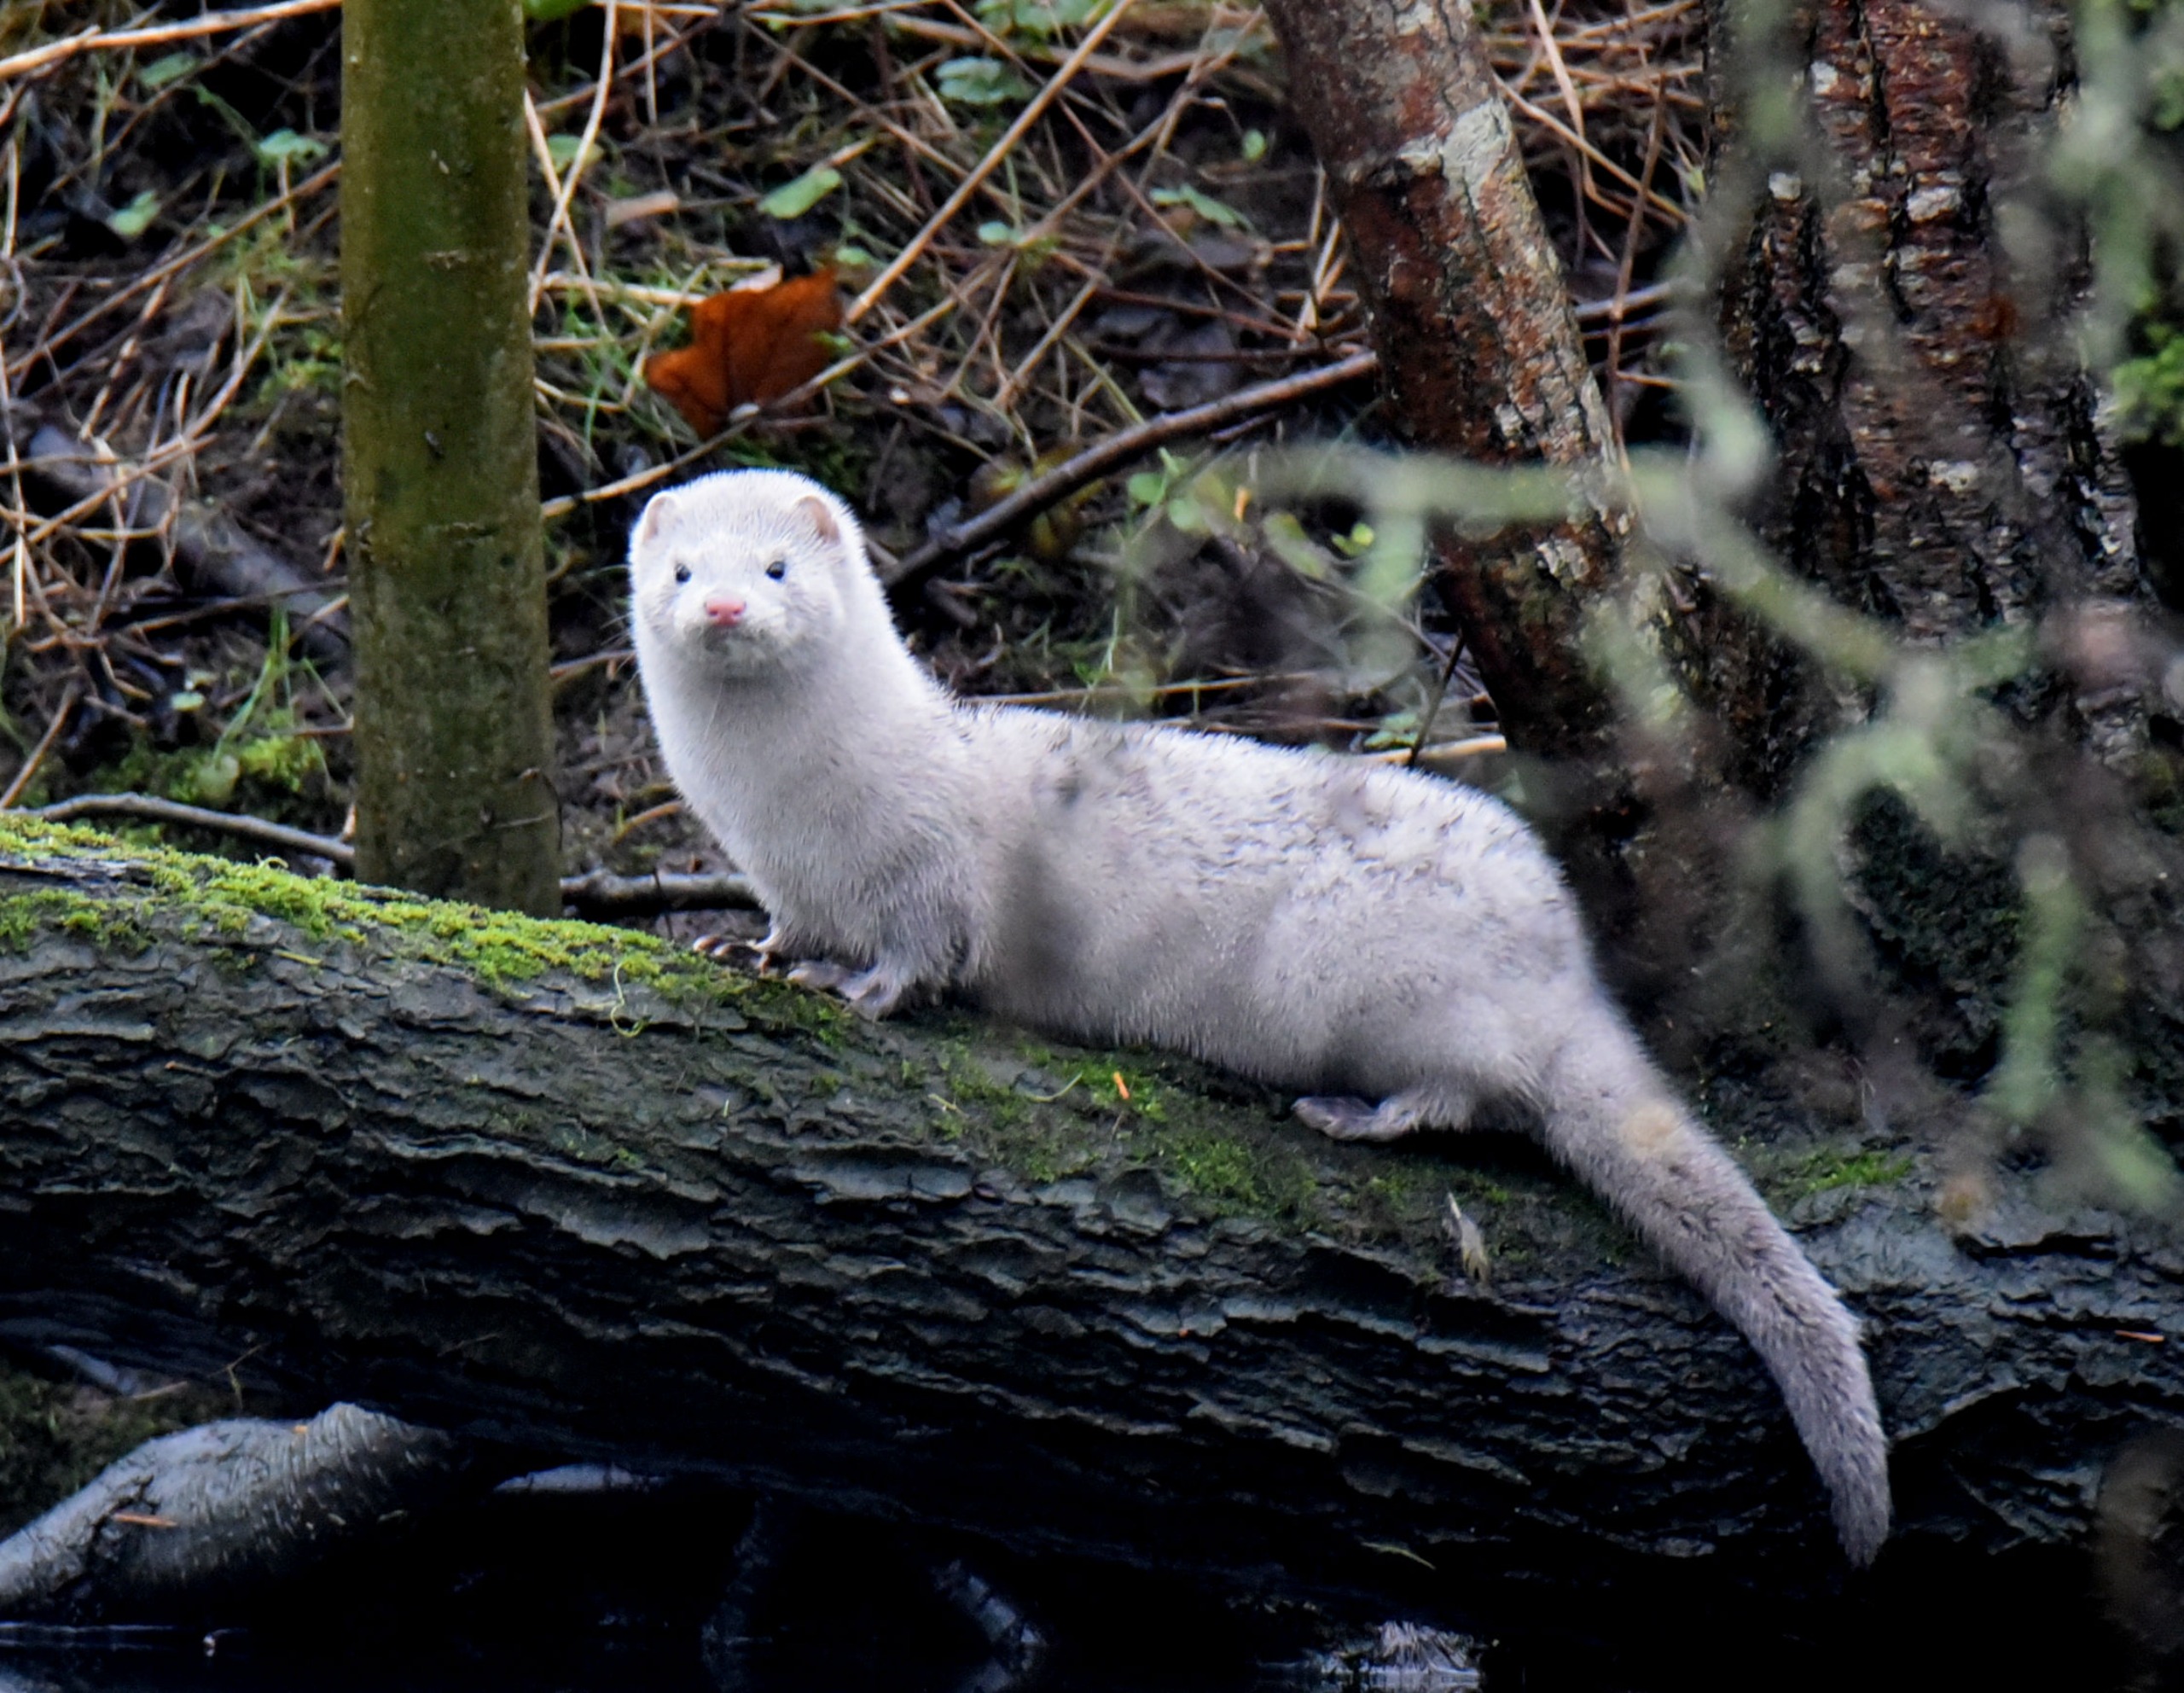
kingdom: Animalia
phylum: Chordata
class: Mammalia
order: Carnivora
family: Mustelidae
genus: Mustela
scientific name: Mustela vison
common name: Mink
